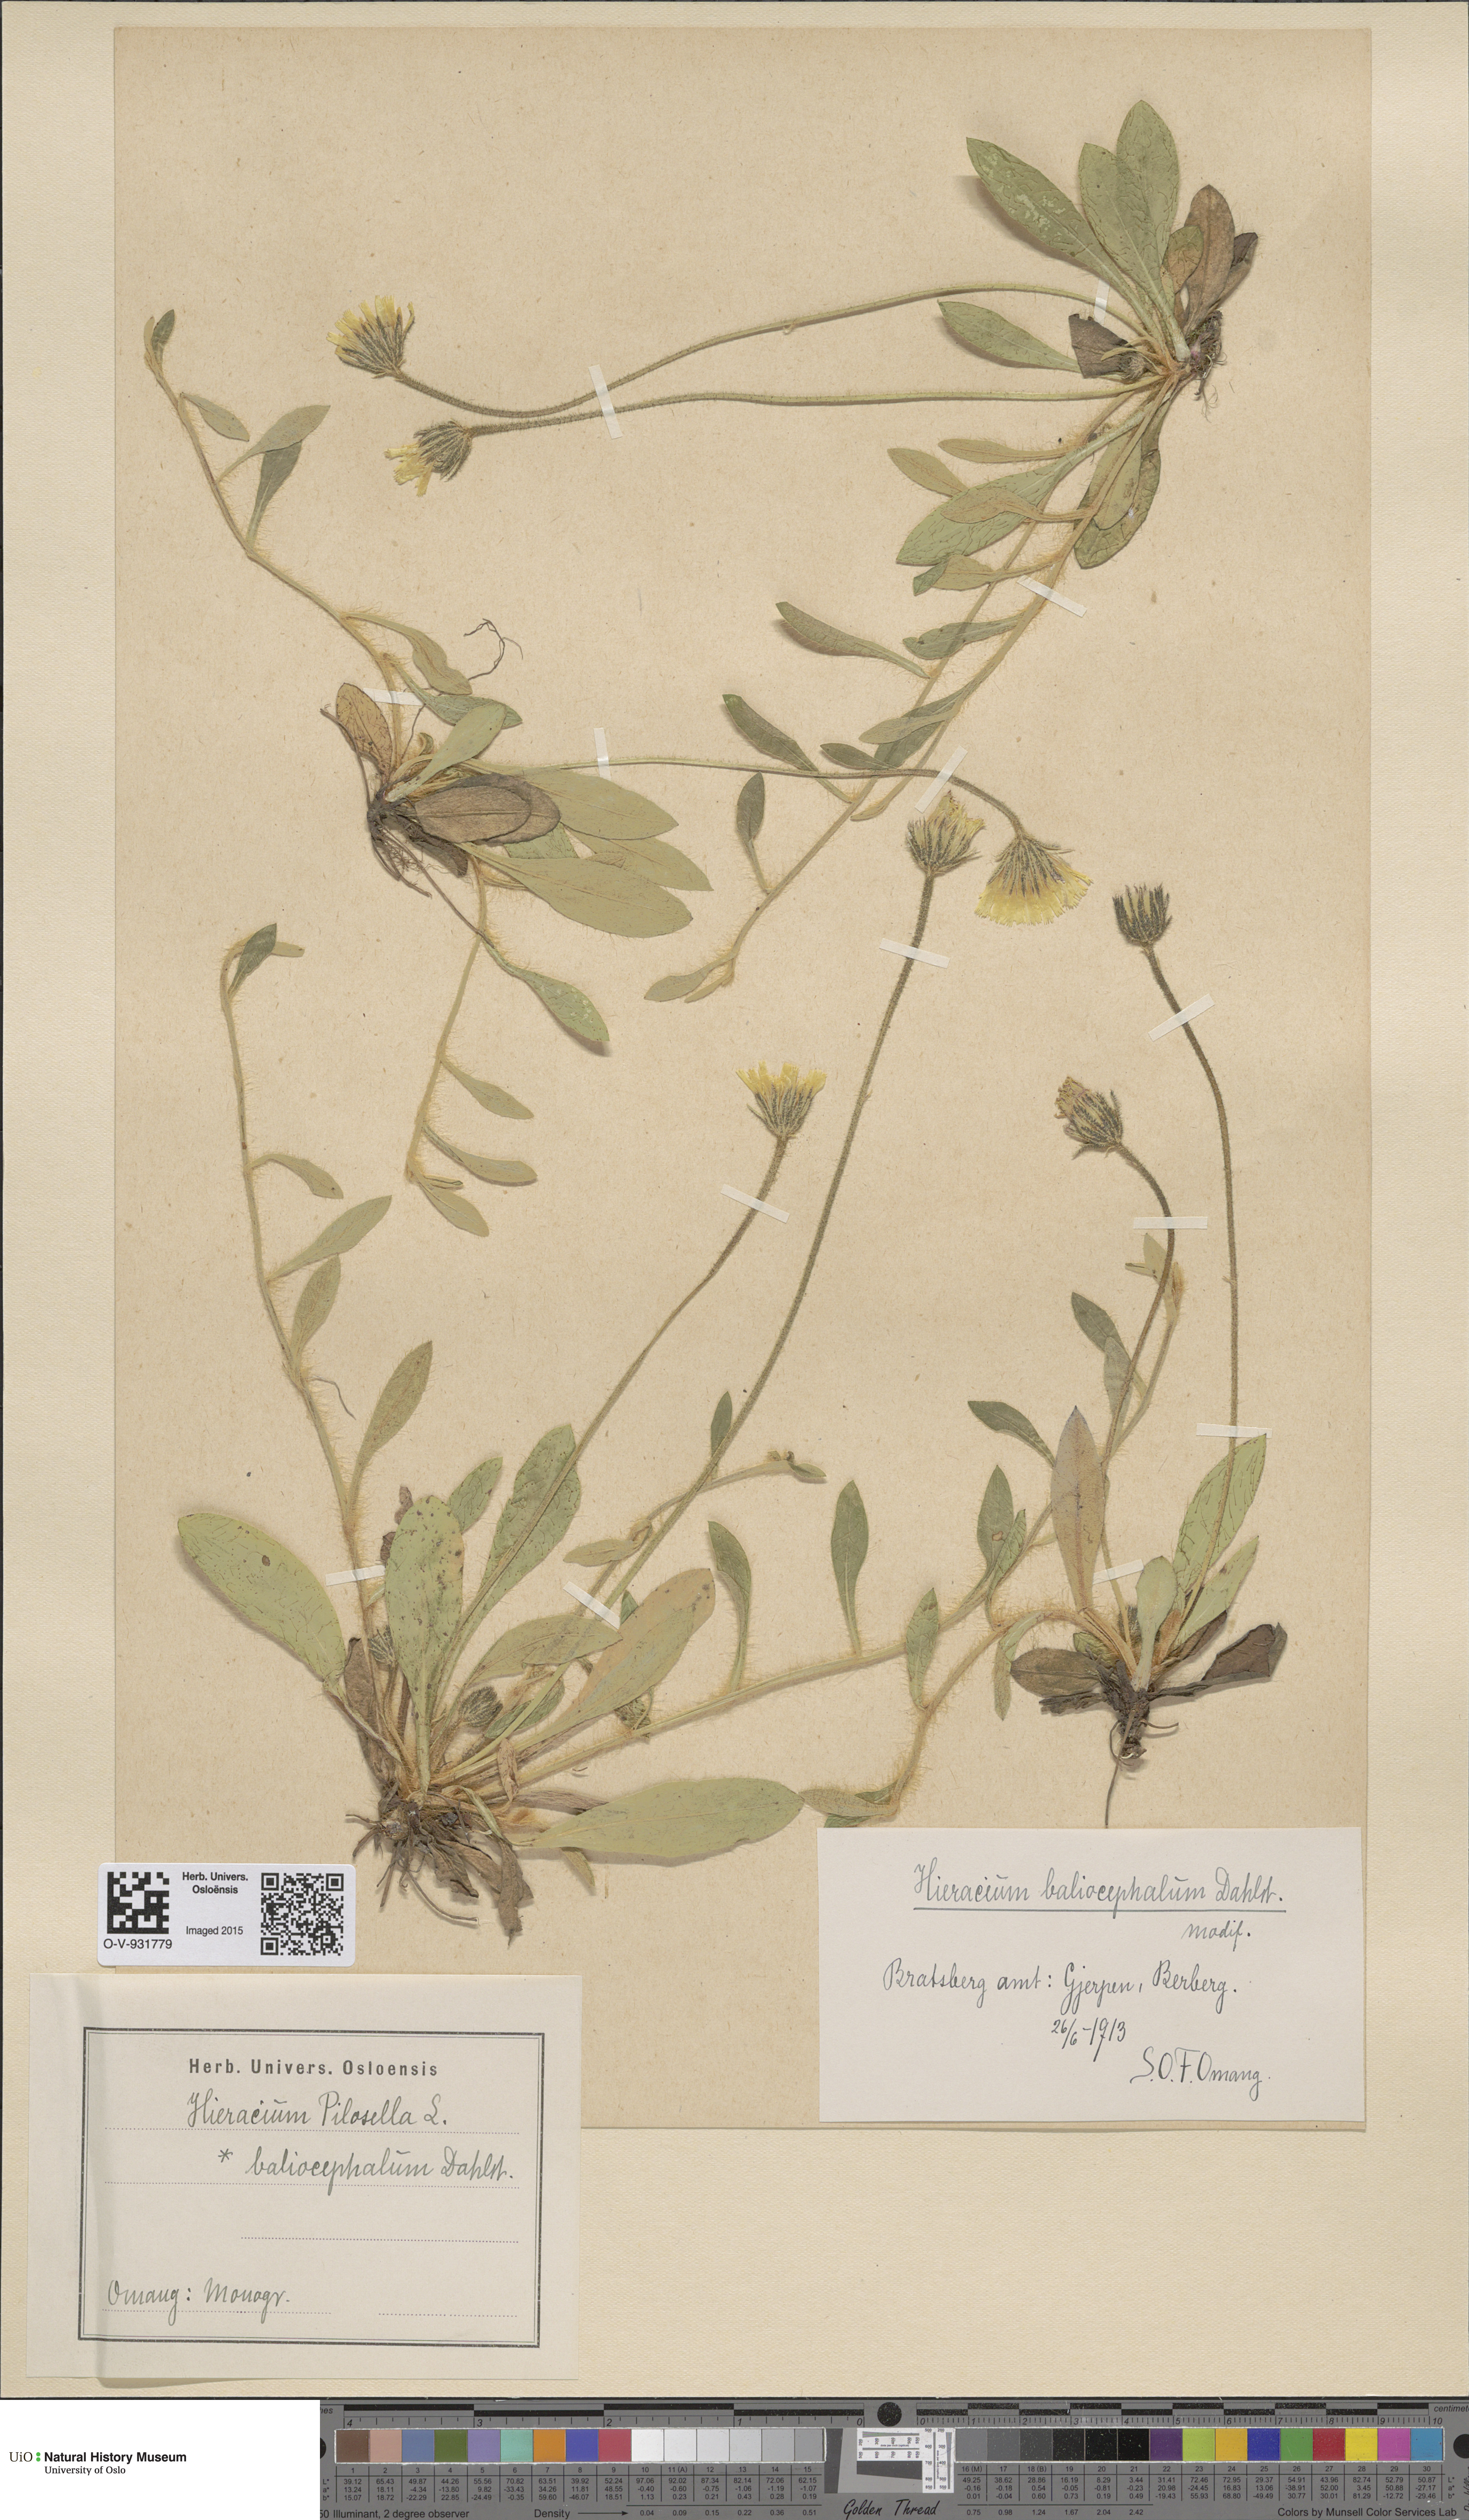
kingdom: Plantae
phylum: Tracheophyta
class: Magnoliopsida
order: Asterales
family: Asteraceae
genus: Pilosella
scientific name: Pilosella officinarum
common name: Mouse-ear hawkweed
